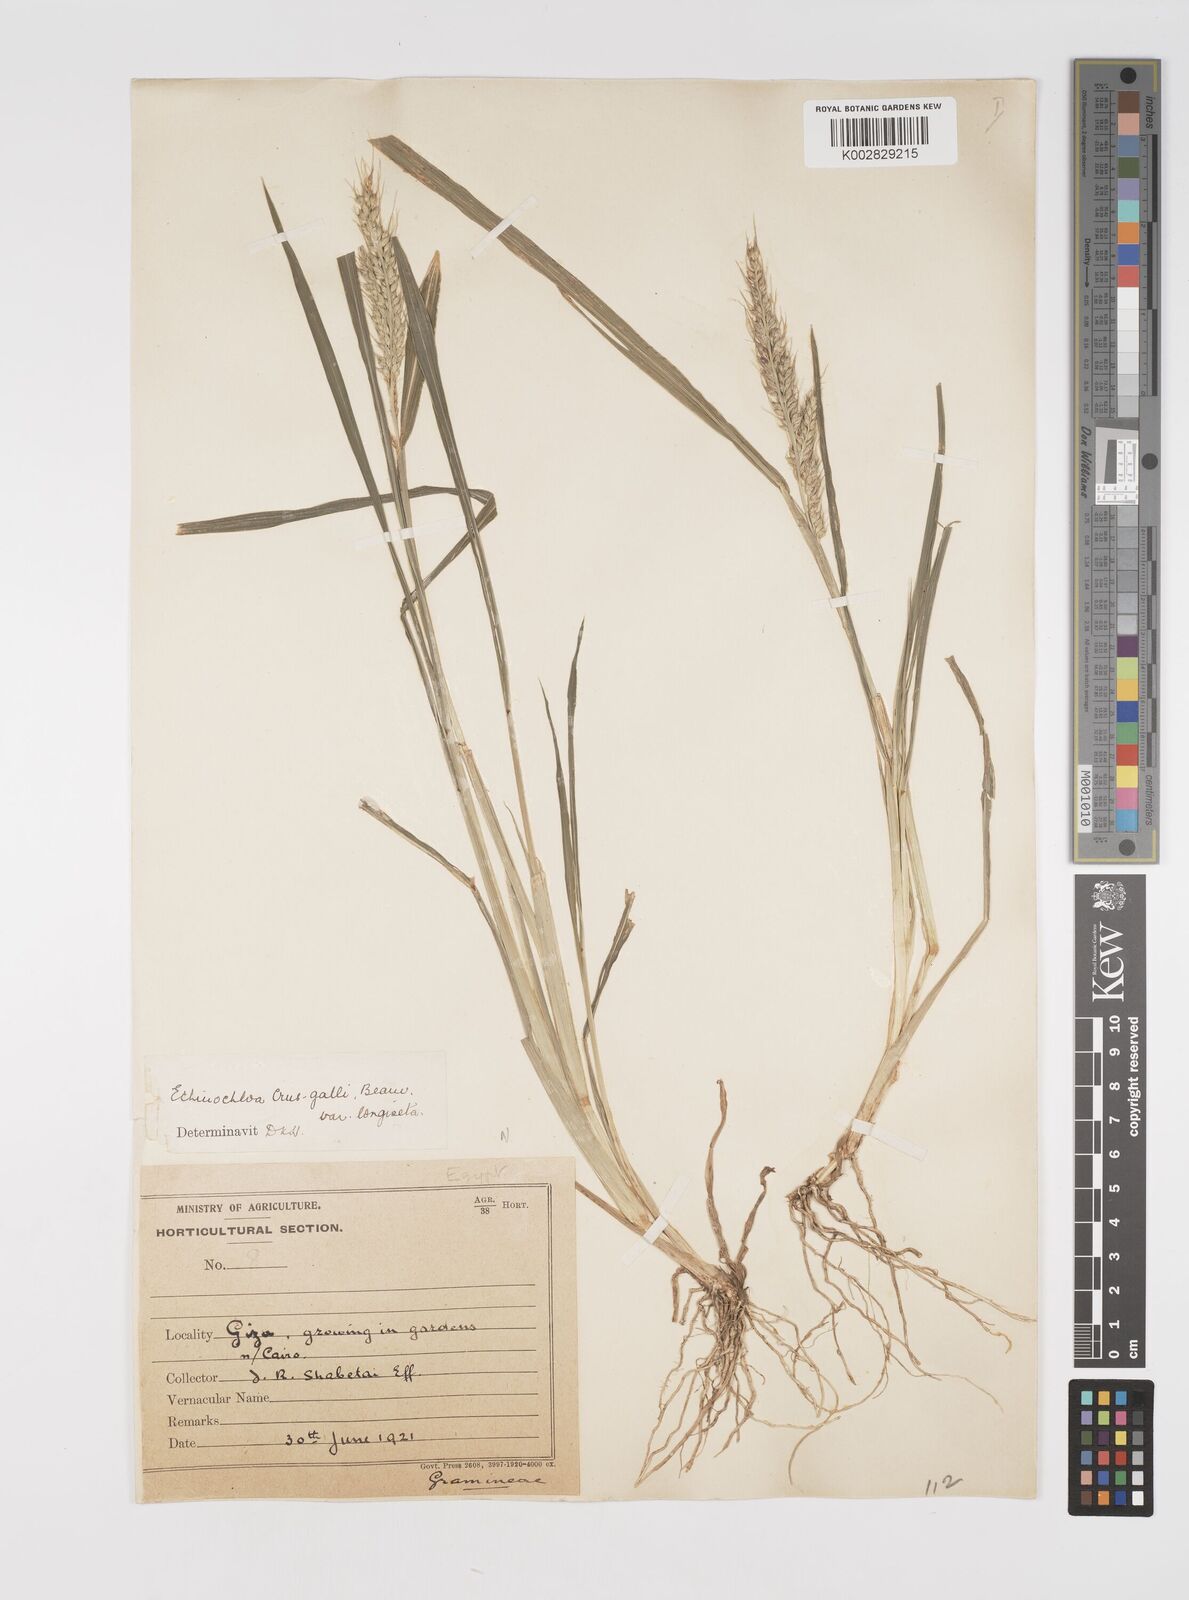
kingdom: Plantae
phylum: Tracheophyta
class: Liliopsida
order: Poales
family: Poaceae
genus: Echinochloa
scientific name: Echinochloa crus-galli
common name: Cockspur
